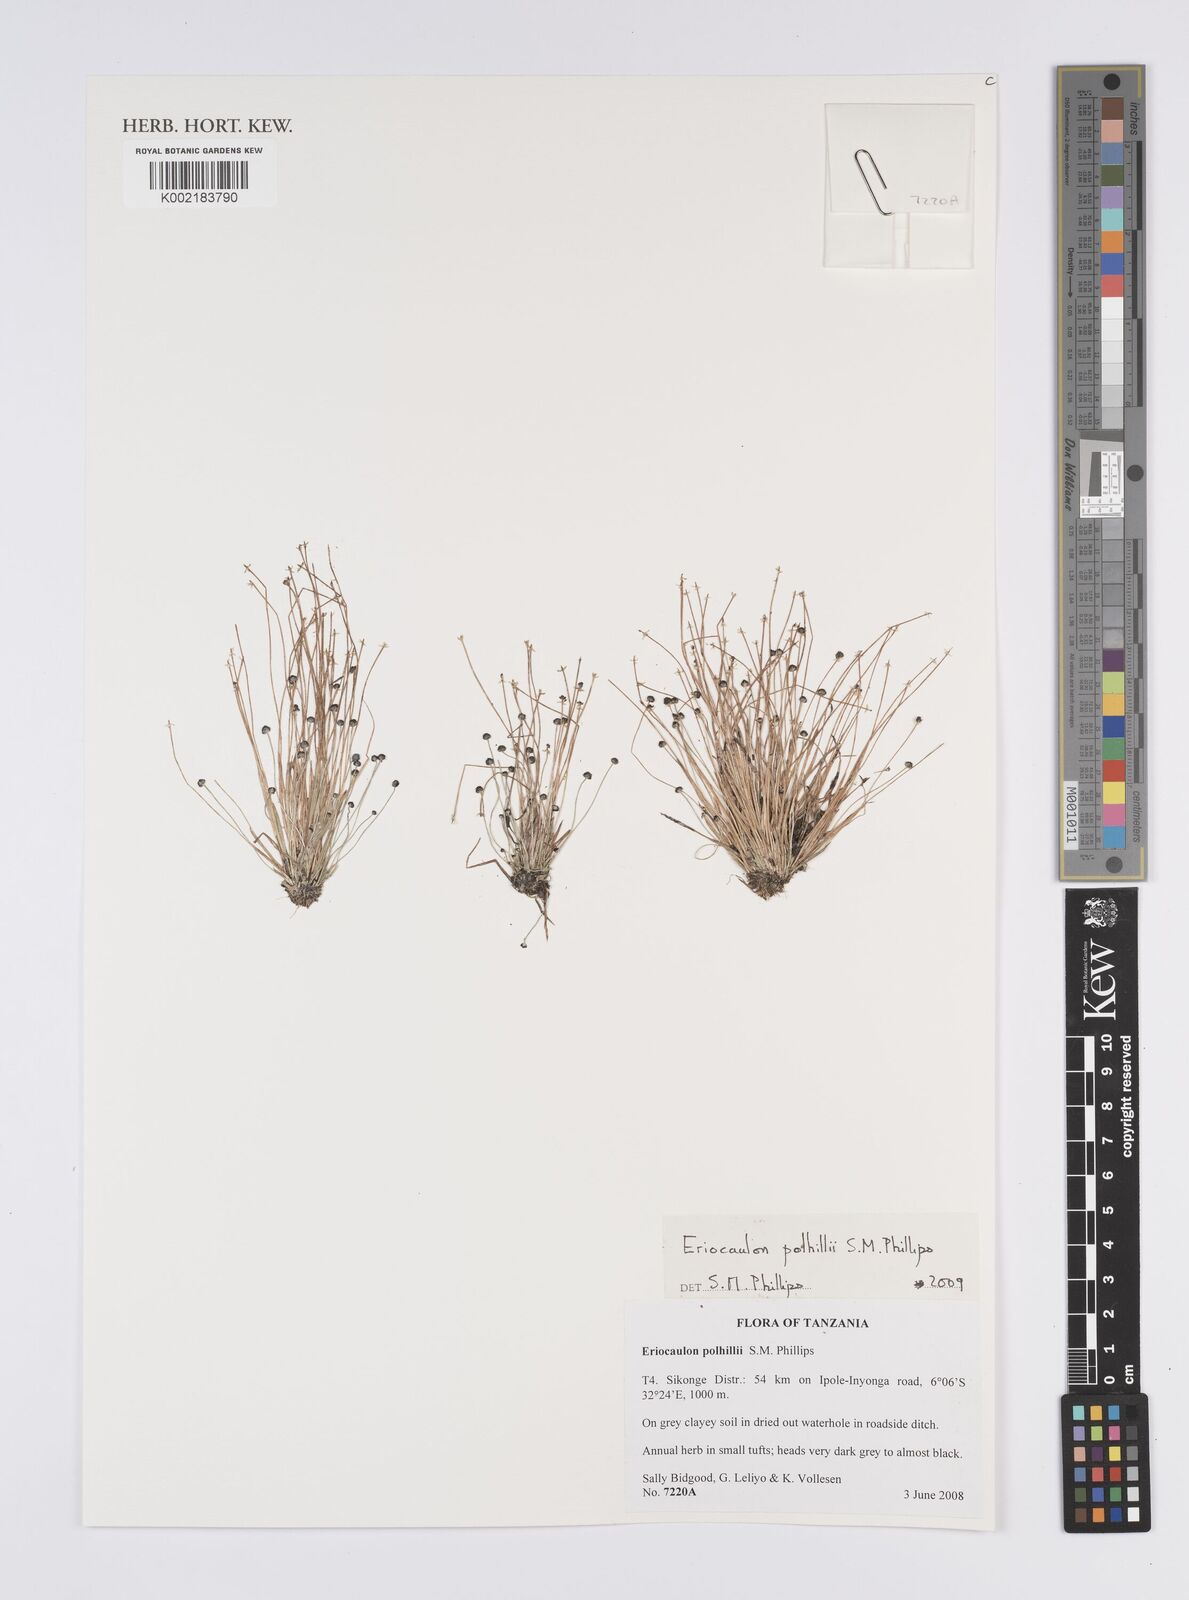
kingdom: Plantae
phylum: Tracheophyta
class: Liliopsida
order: Poales
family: Eriocaulaceae
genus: Eriocaulon
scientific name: Eriocaulon polhillii
